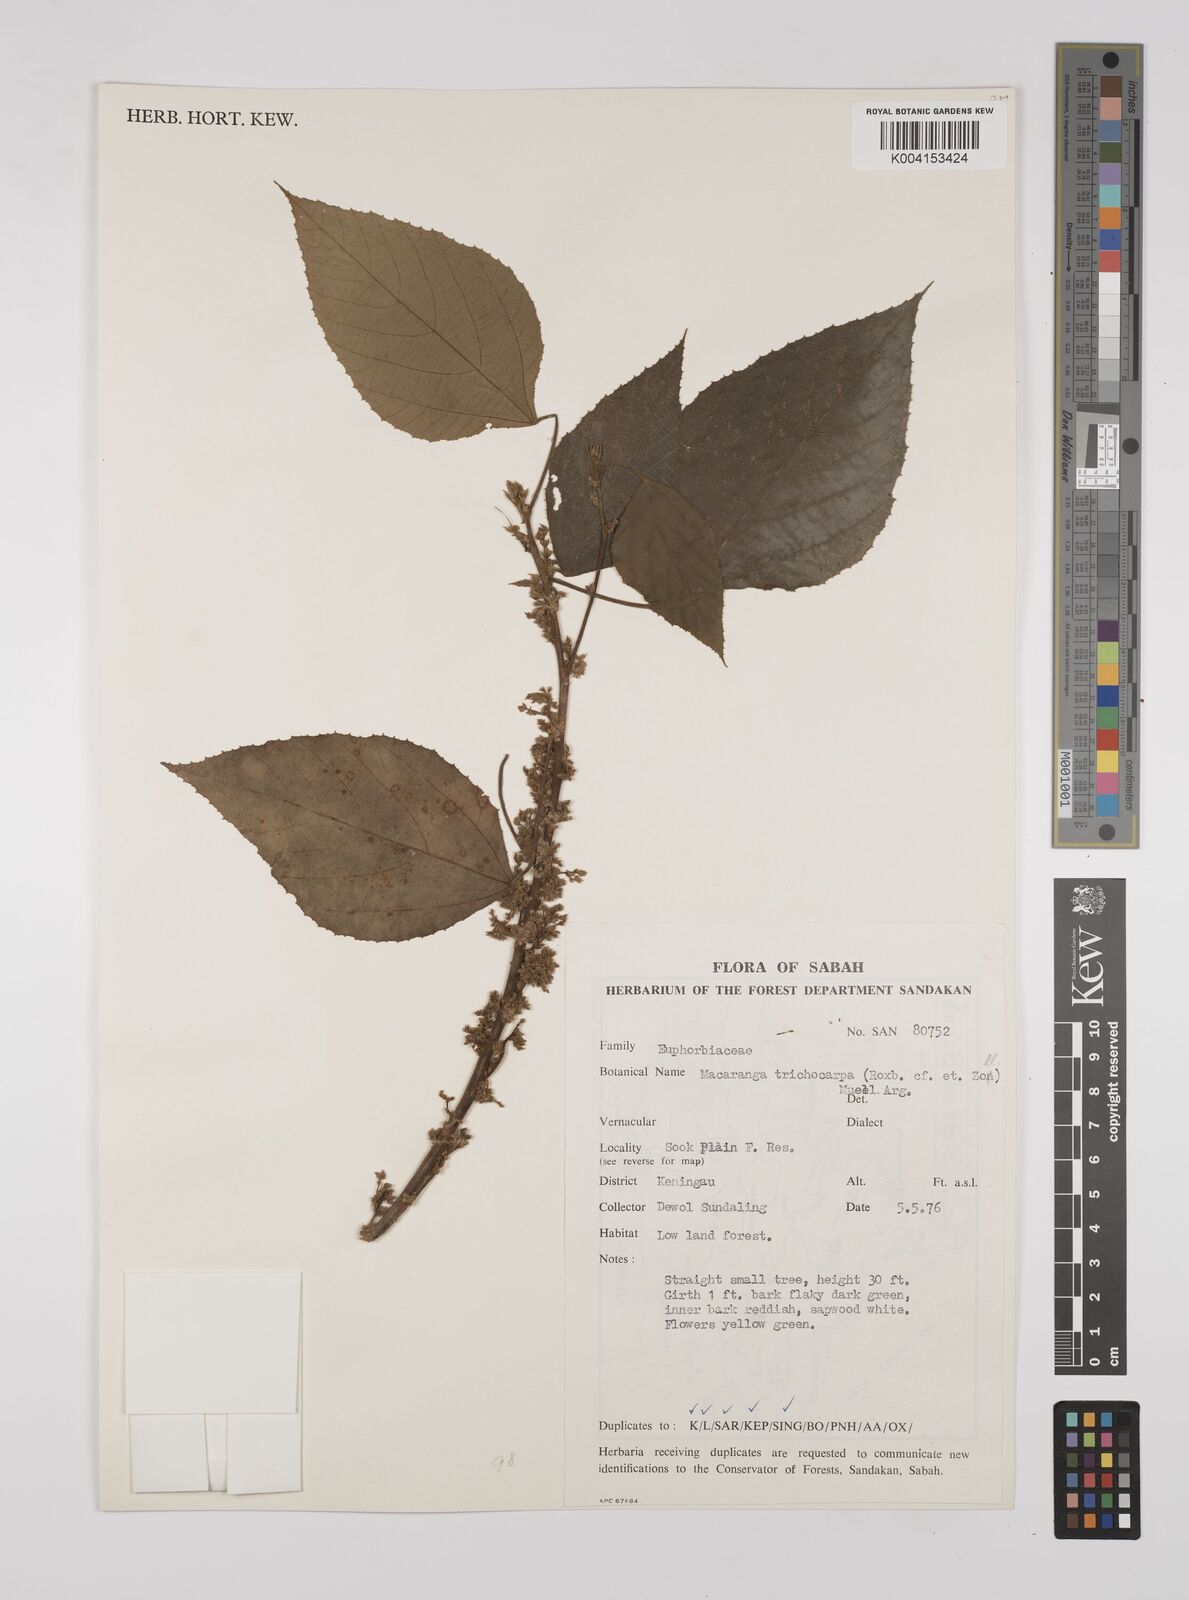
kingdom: Plantae
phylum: Tracheophyta
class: Magnoliopsida
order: Malpighiales
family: Euphorbiaceae
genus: Macaranga
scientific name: Macaranga trichocarpa
